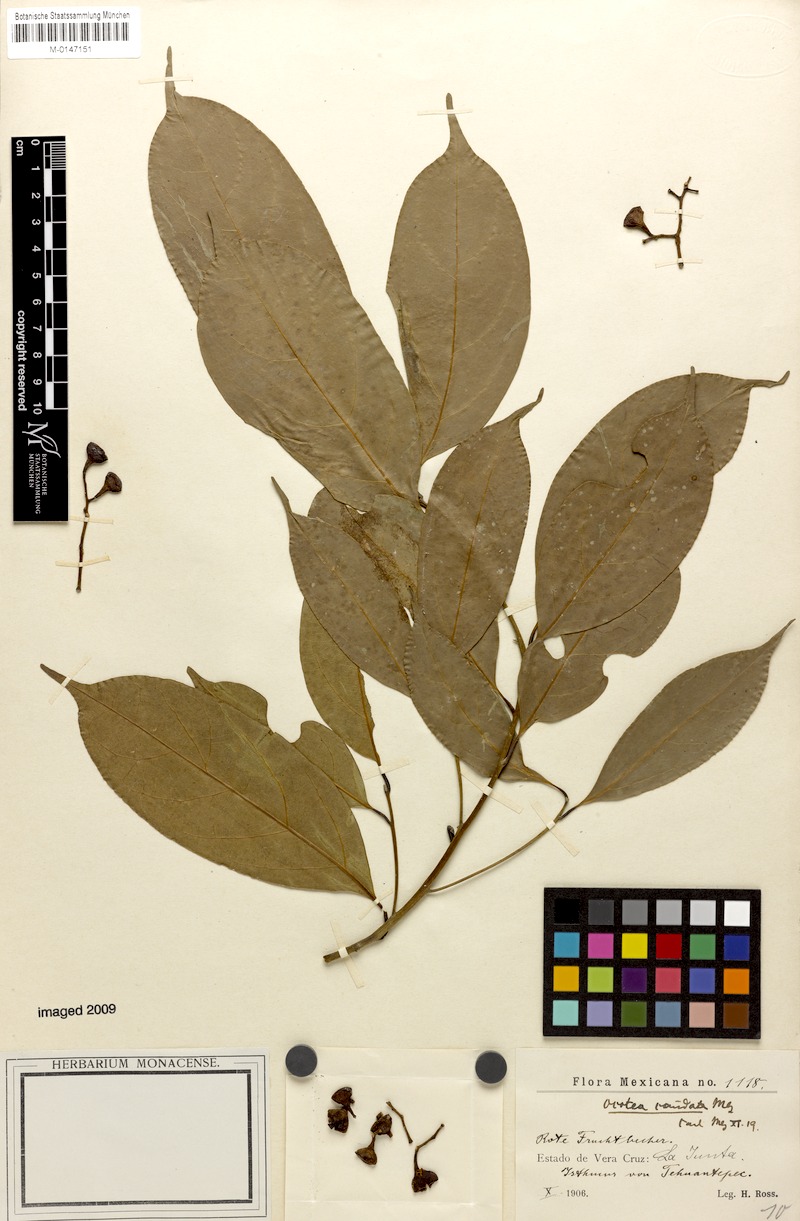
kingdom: Plantae
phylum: Tracheophyta
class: Magnoliopsida
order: Laurales
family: Lauraceae
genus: Ocotea
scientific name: Ocotea leptobotra
